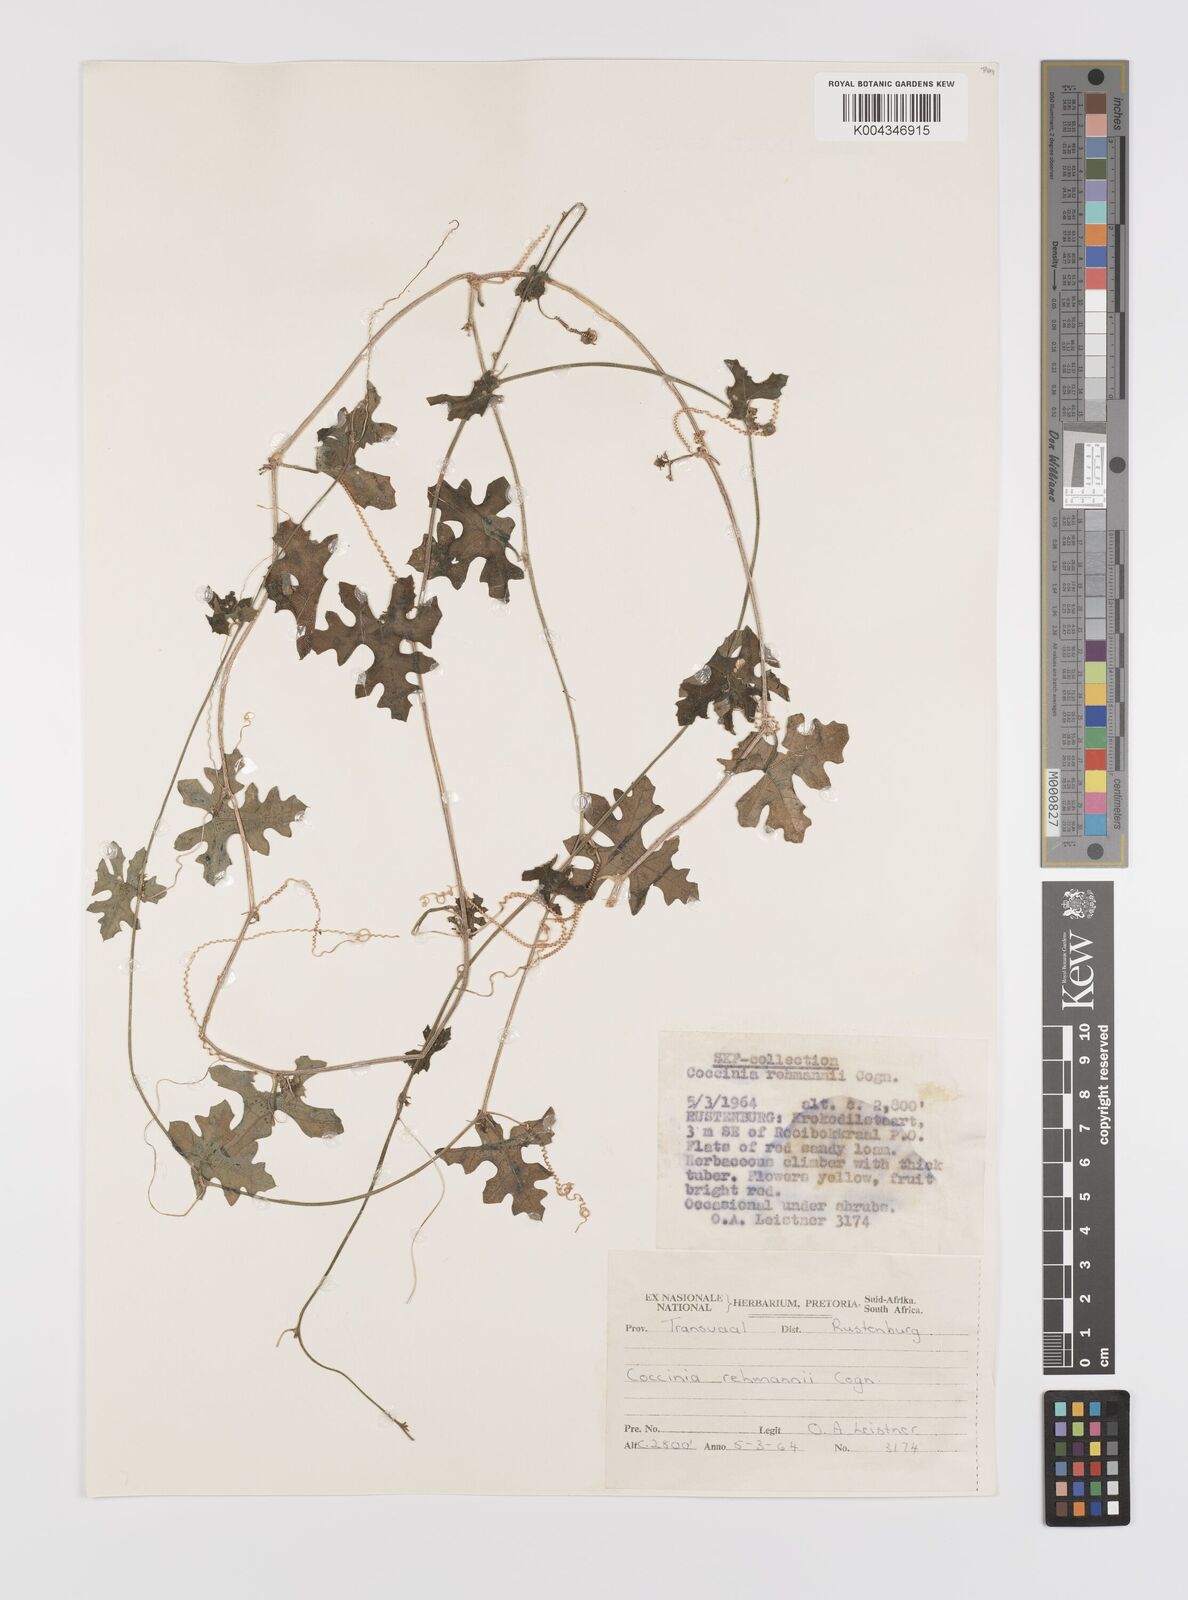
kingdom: Plantae
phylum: Tracheophyta
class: Magnoliopsida
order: Cucurbitales
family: Cucurbitaceae
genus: Coccinia
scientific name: Coccinia rehmannii
